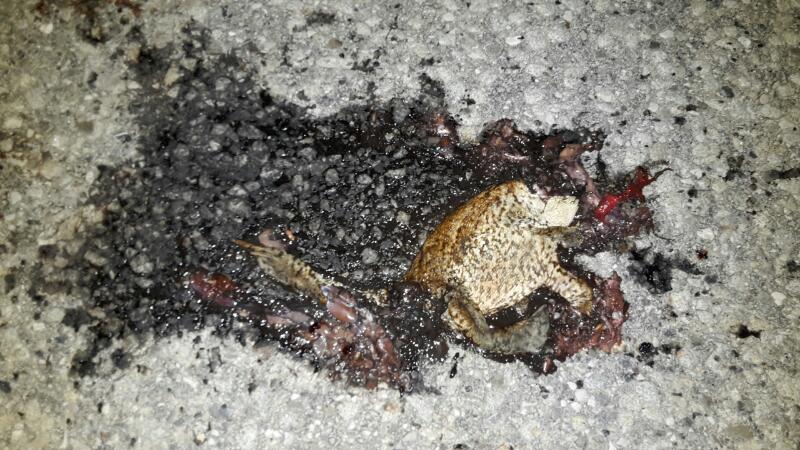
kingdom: Animalia
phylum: Chordata
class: Amphibia
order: Anura
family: Bufonidae
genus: Bufo
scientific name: Bufo bufo
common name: Common toad
